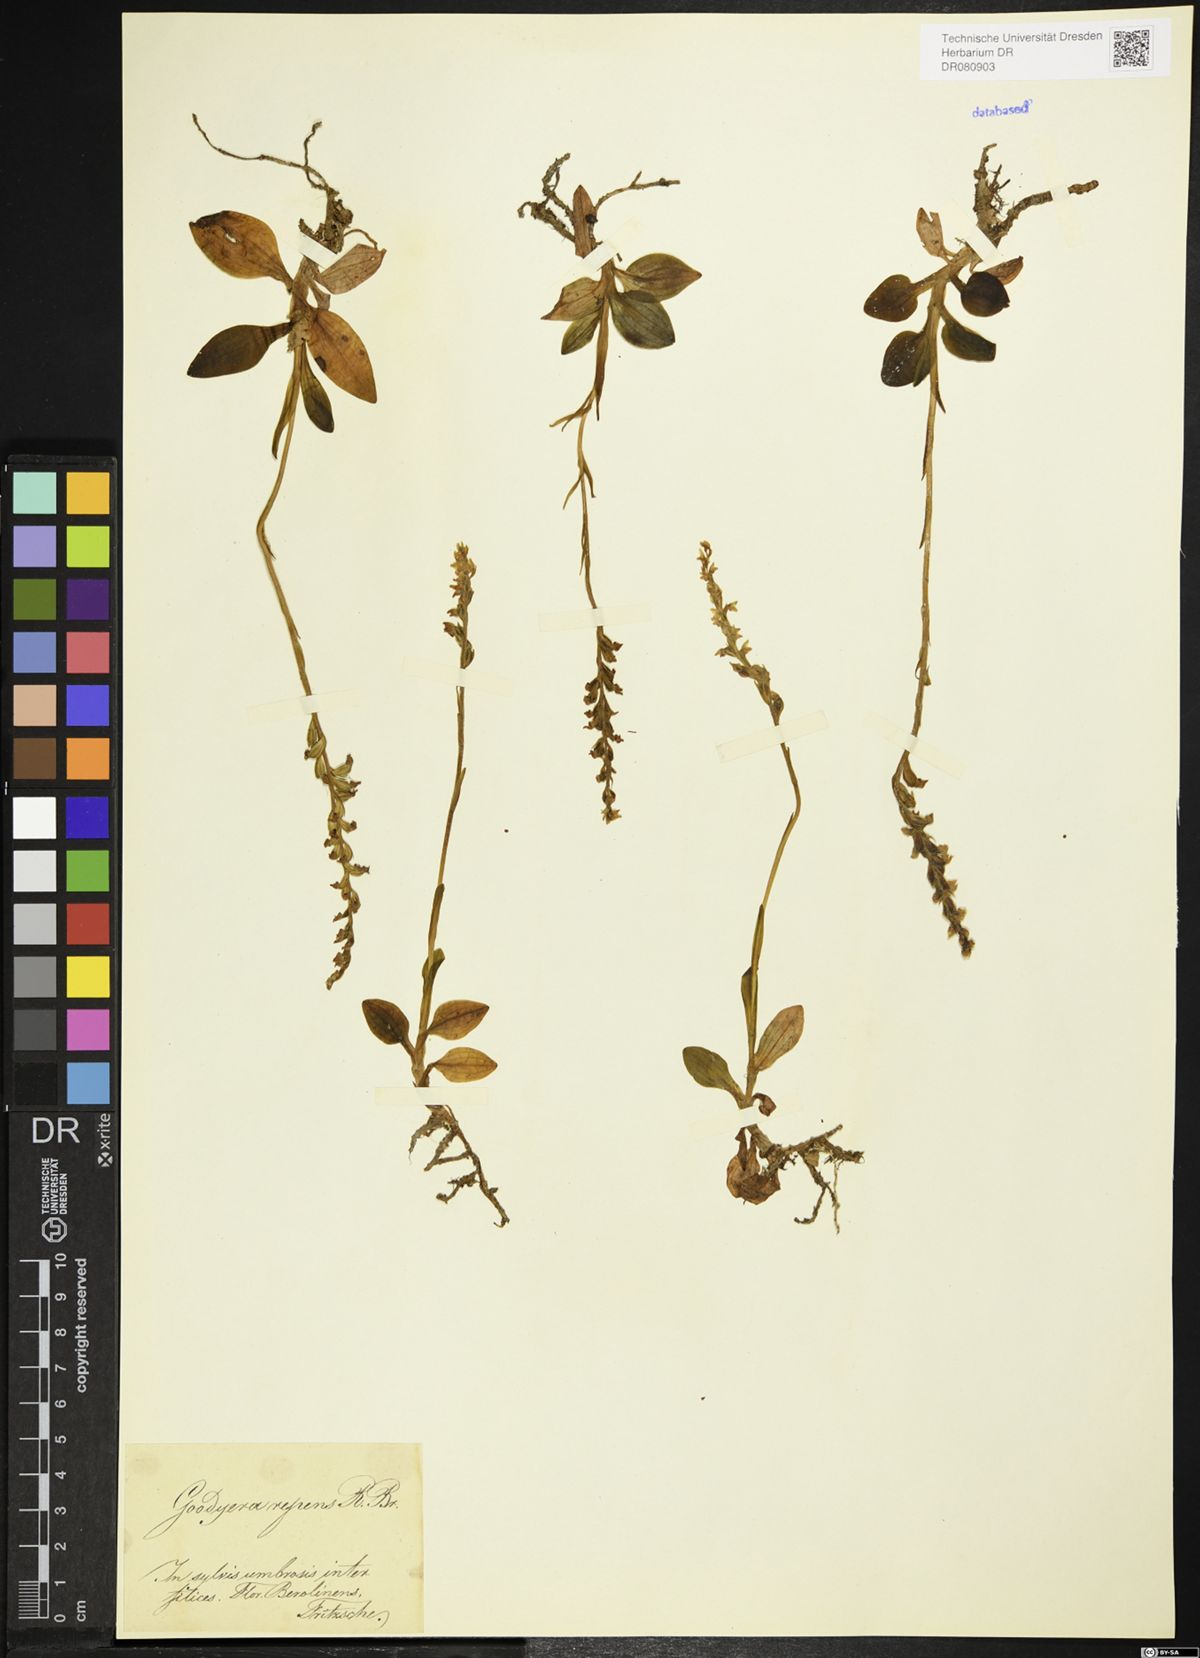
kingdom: Plantae
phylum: Tracheophyta
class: Liliopsida
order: Asparagales
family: Orchidaceae
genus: Goodyera
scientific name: Goodyera repens
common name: Creeping lady's-tresses
